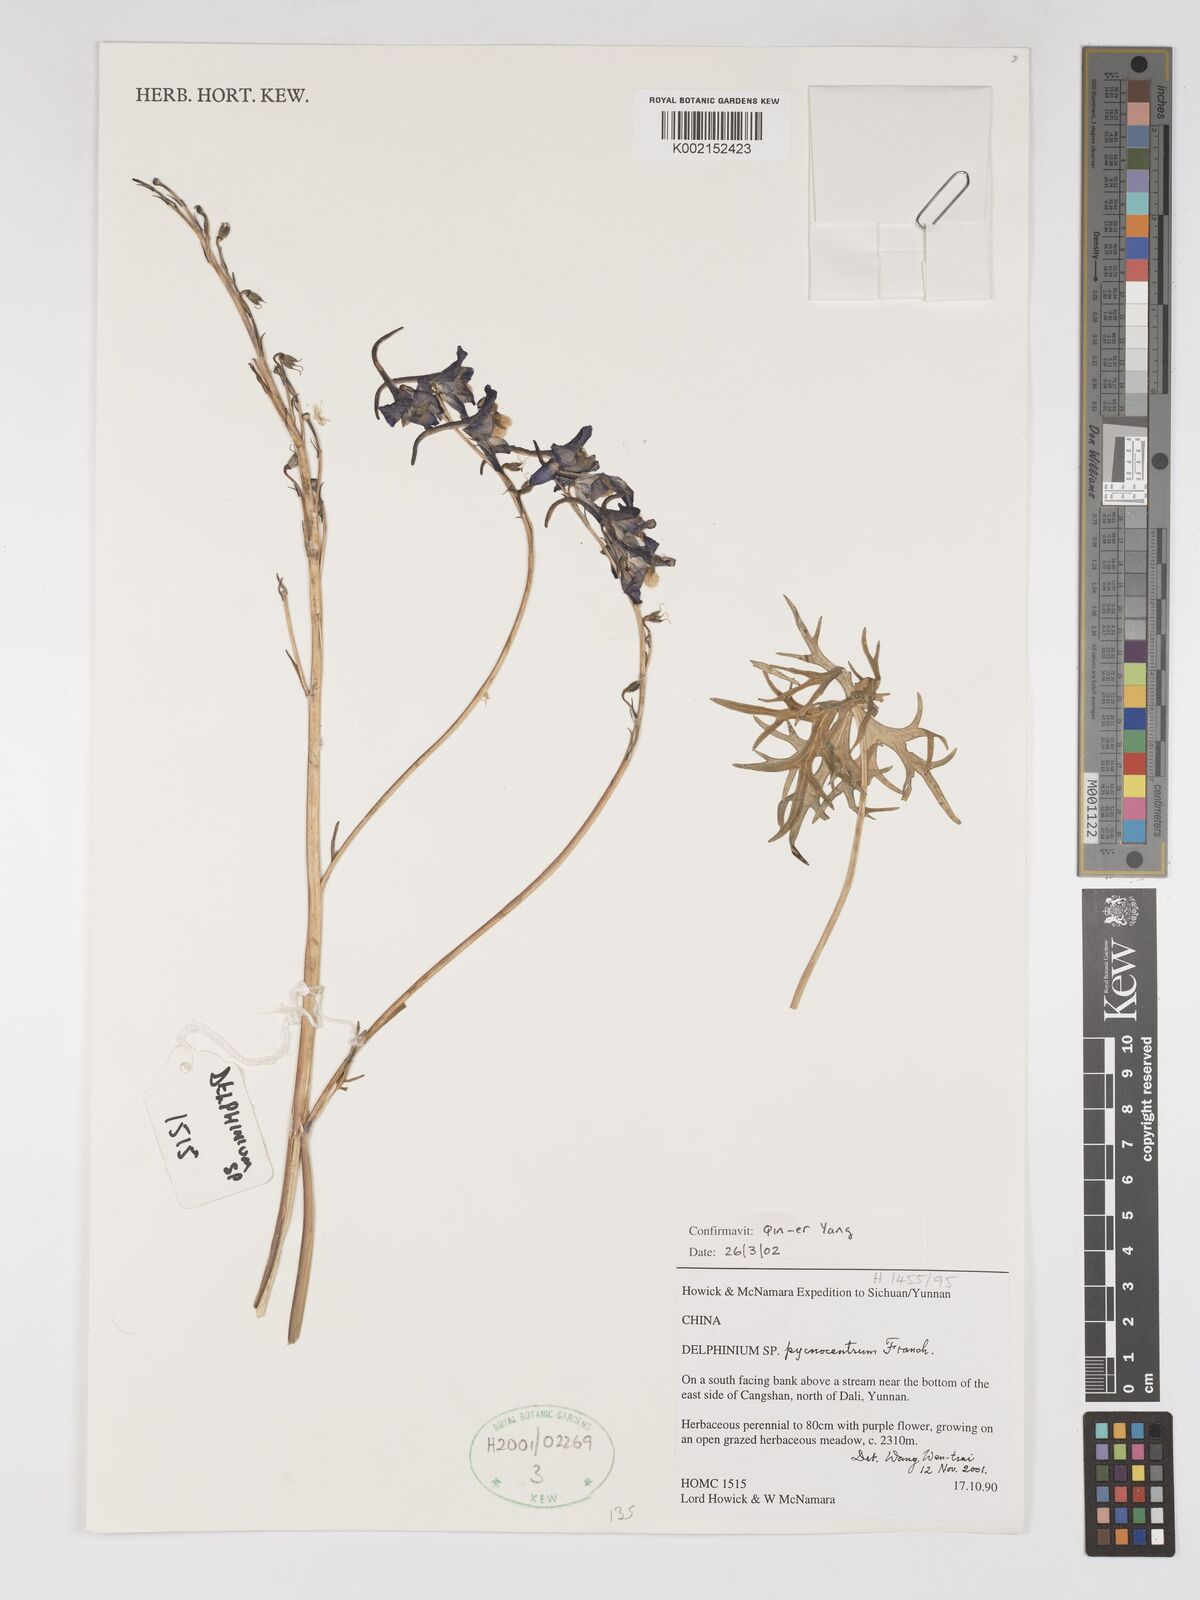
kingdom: Plantae
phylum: Tracheophyta
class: Magnoliopsida
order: Ranunculales
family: Ranunculaceae
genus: Delphinium
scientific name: Delphinium pycnocentrum
